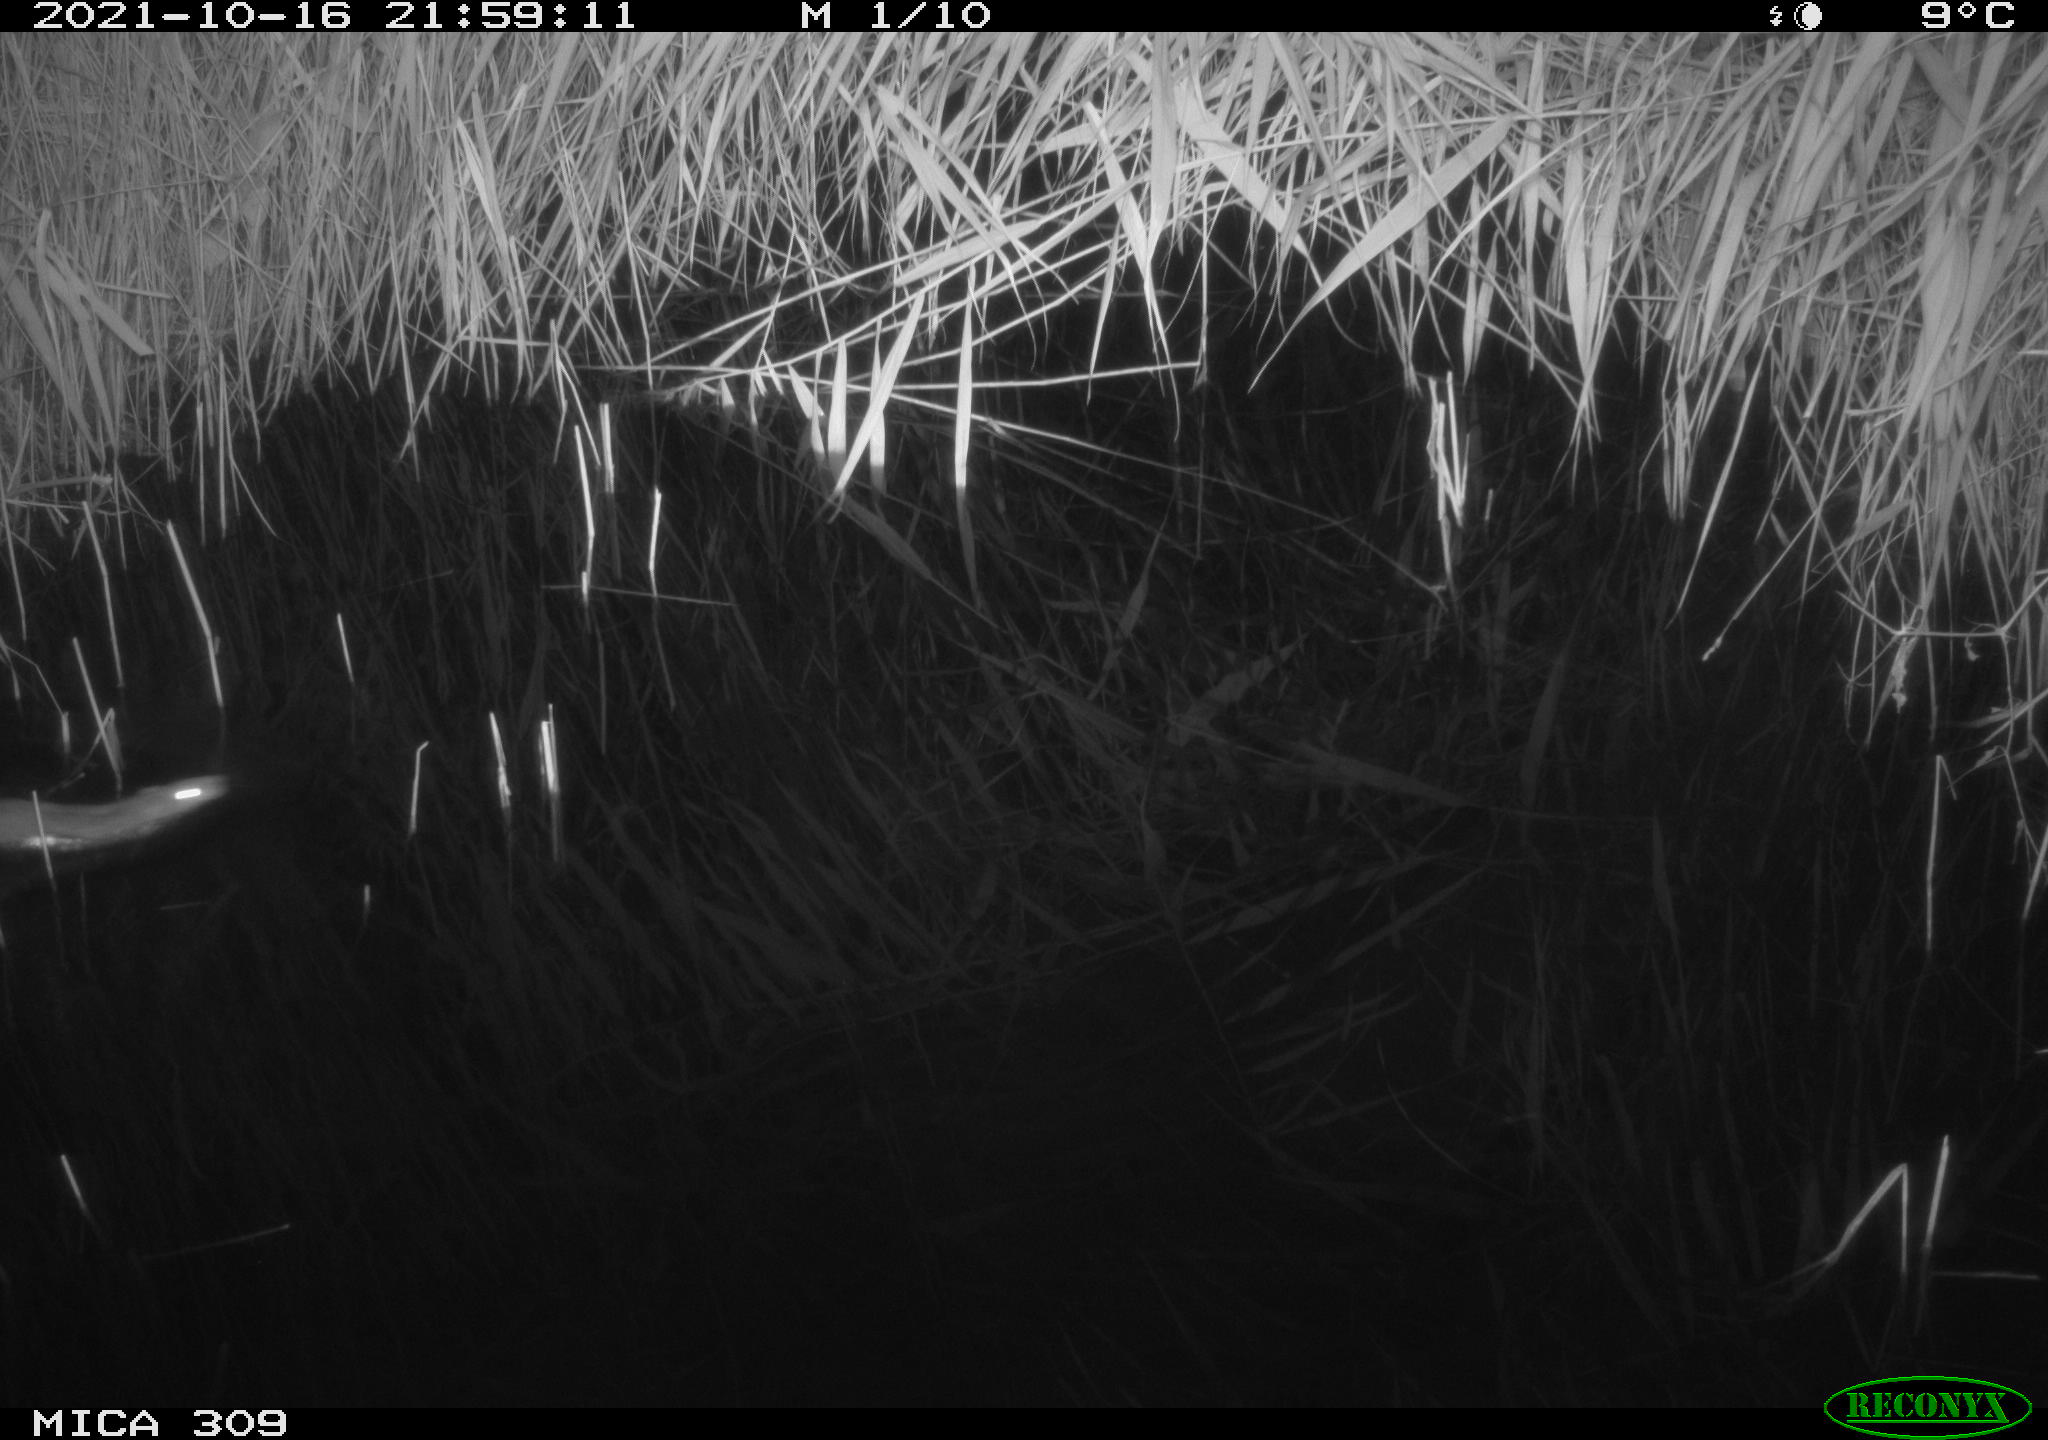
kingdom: Animalia
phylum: Chordata
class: Mammalia
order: Rodentia
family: Muridae
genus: Rattus
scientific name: Rattus norvegicus
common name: Brown rat
